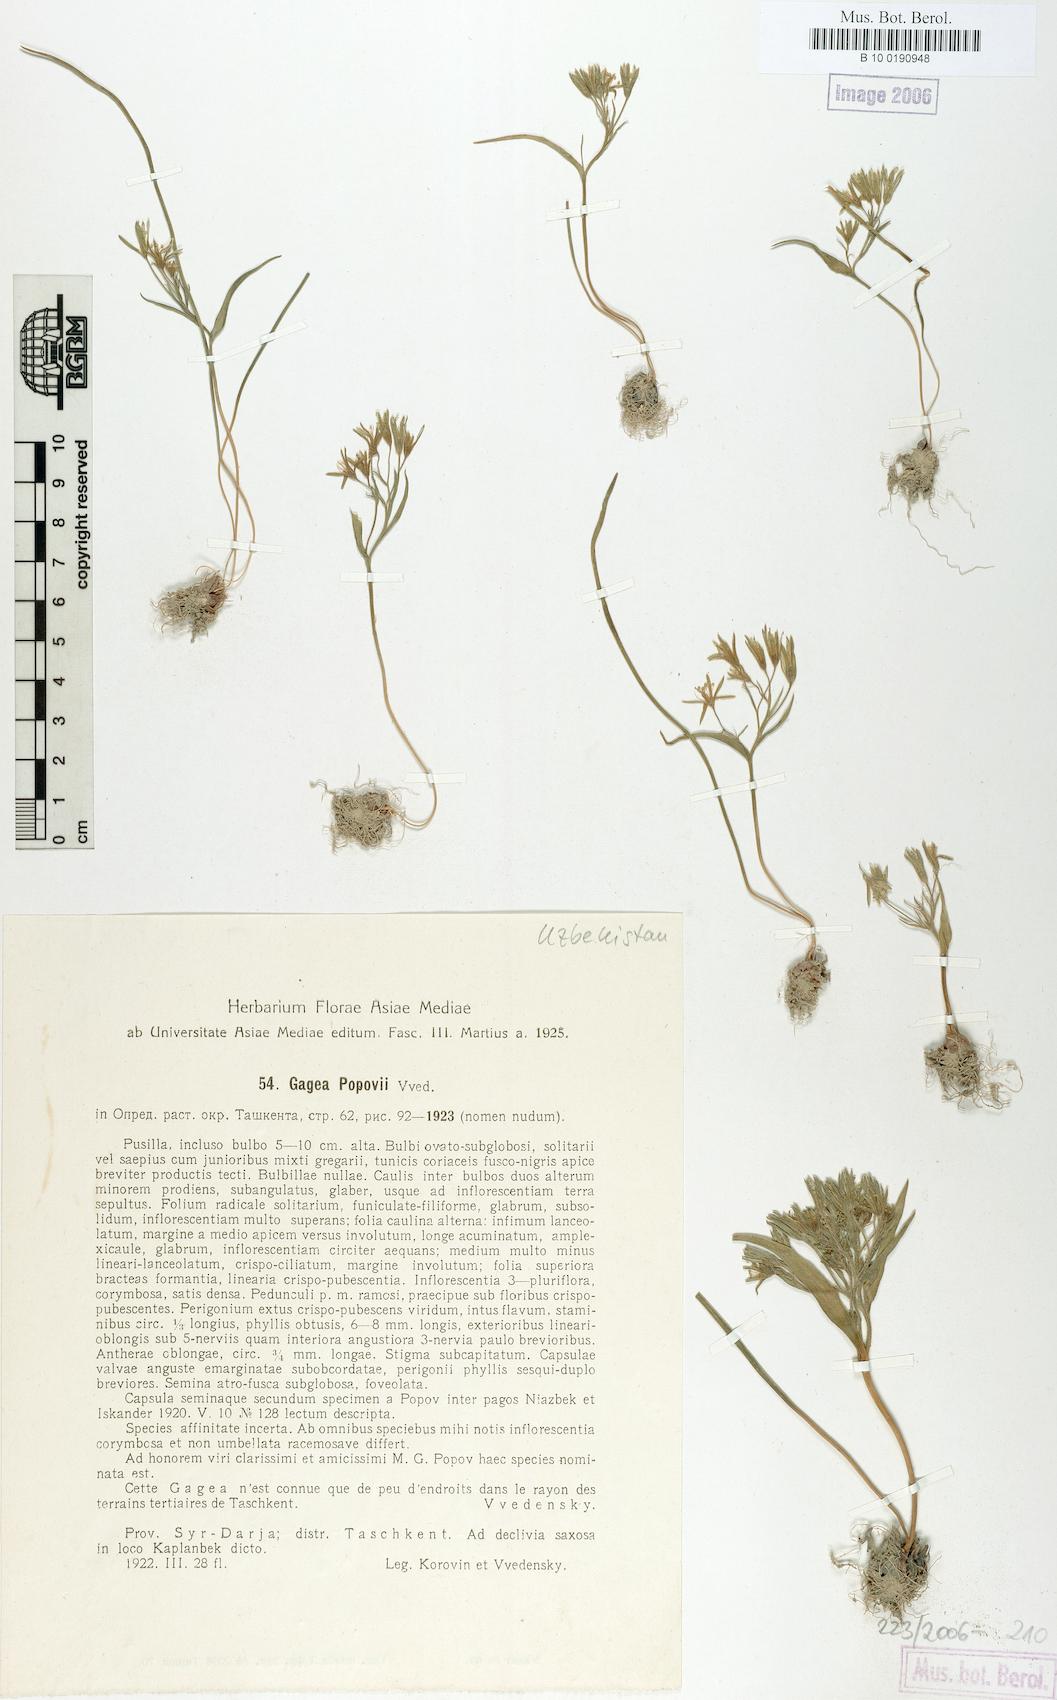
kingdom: Plantae
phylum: Tracheophyta
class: Liliopsida
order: Liliales
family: Liliaceae
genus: Gagea
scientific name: Gagea popovii
